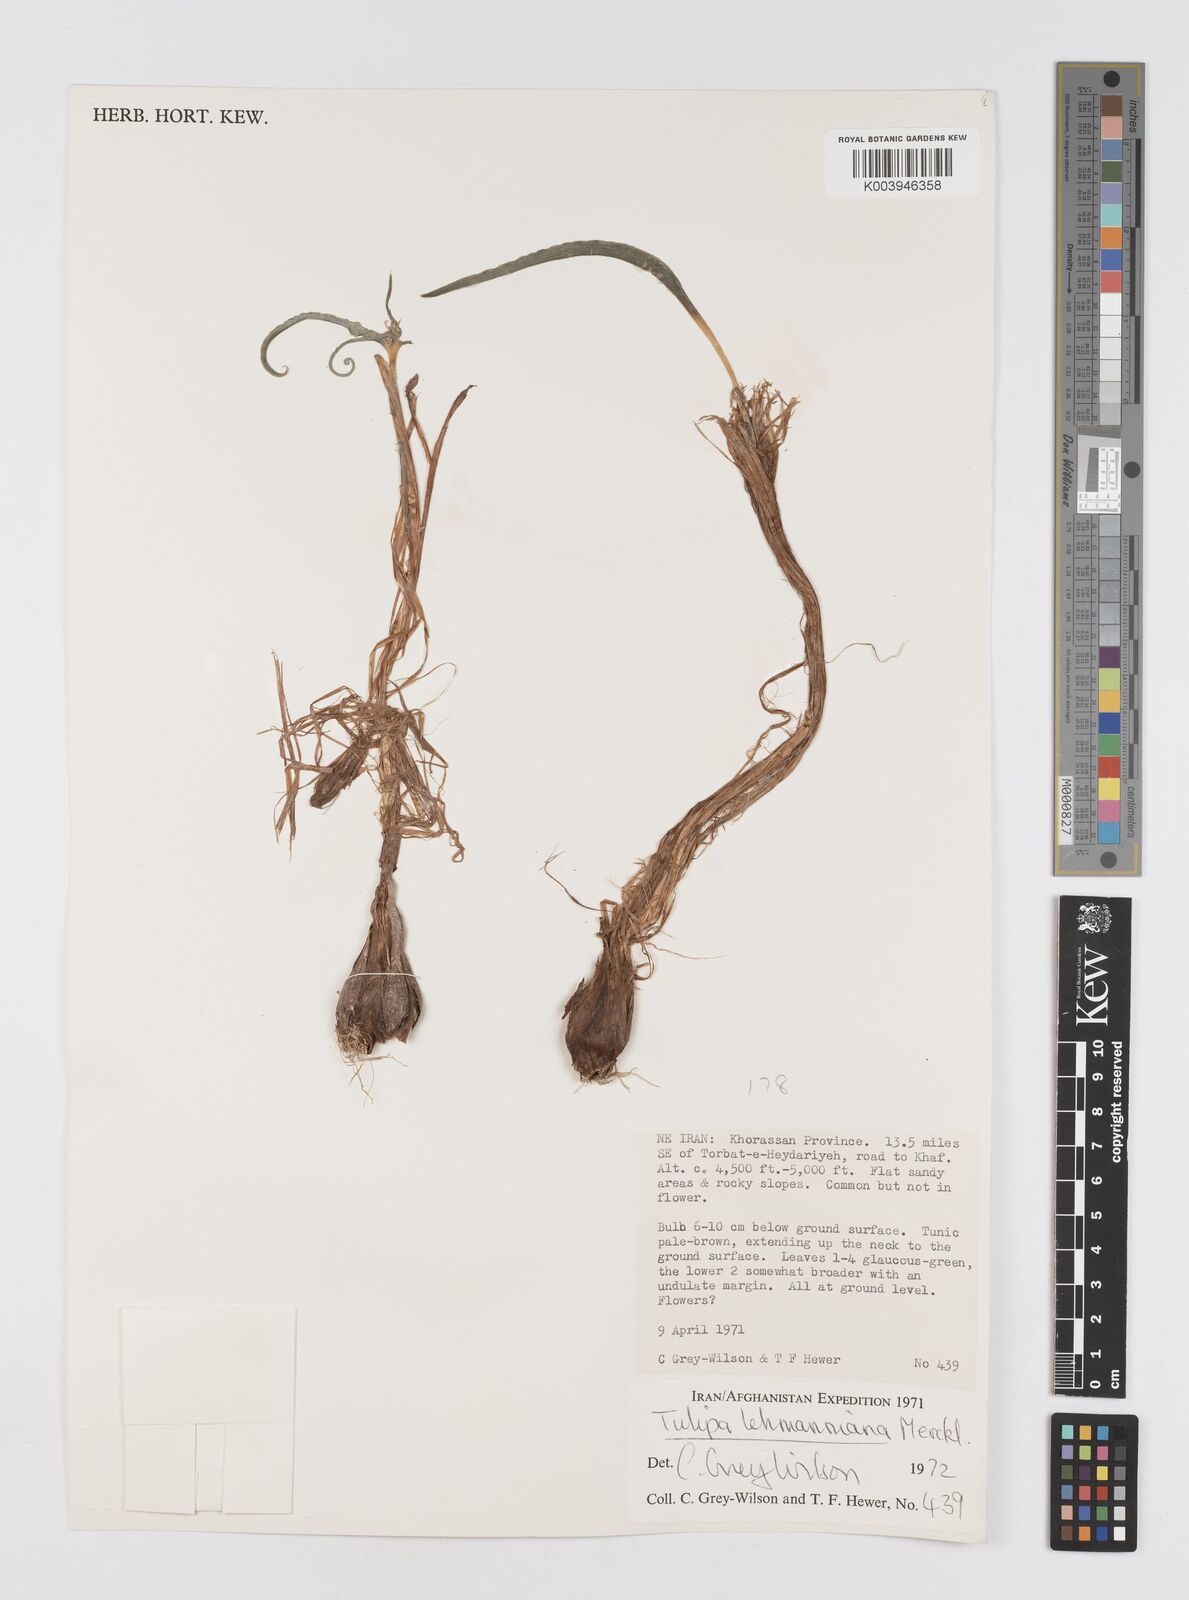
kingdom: Plantae
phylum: Tracheophyta
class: Liliopsida
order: Liliales
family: Liliaceae
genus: Tulipa
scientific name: Tulipa lehmanniana
